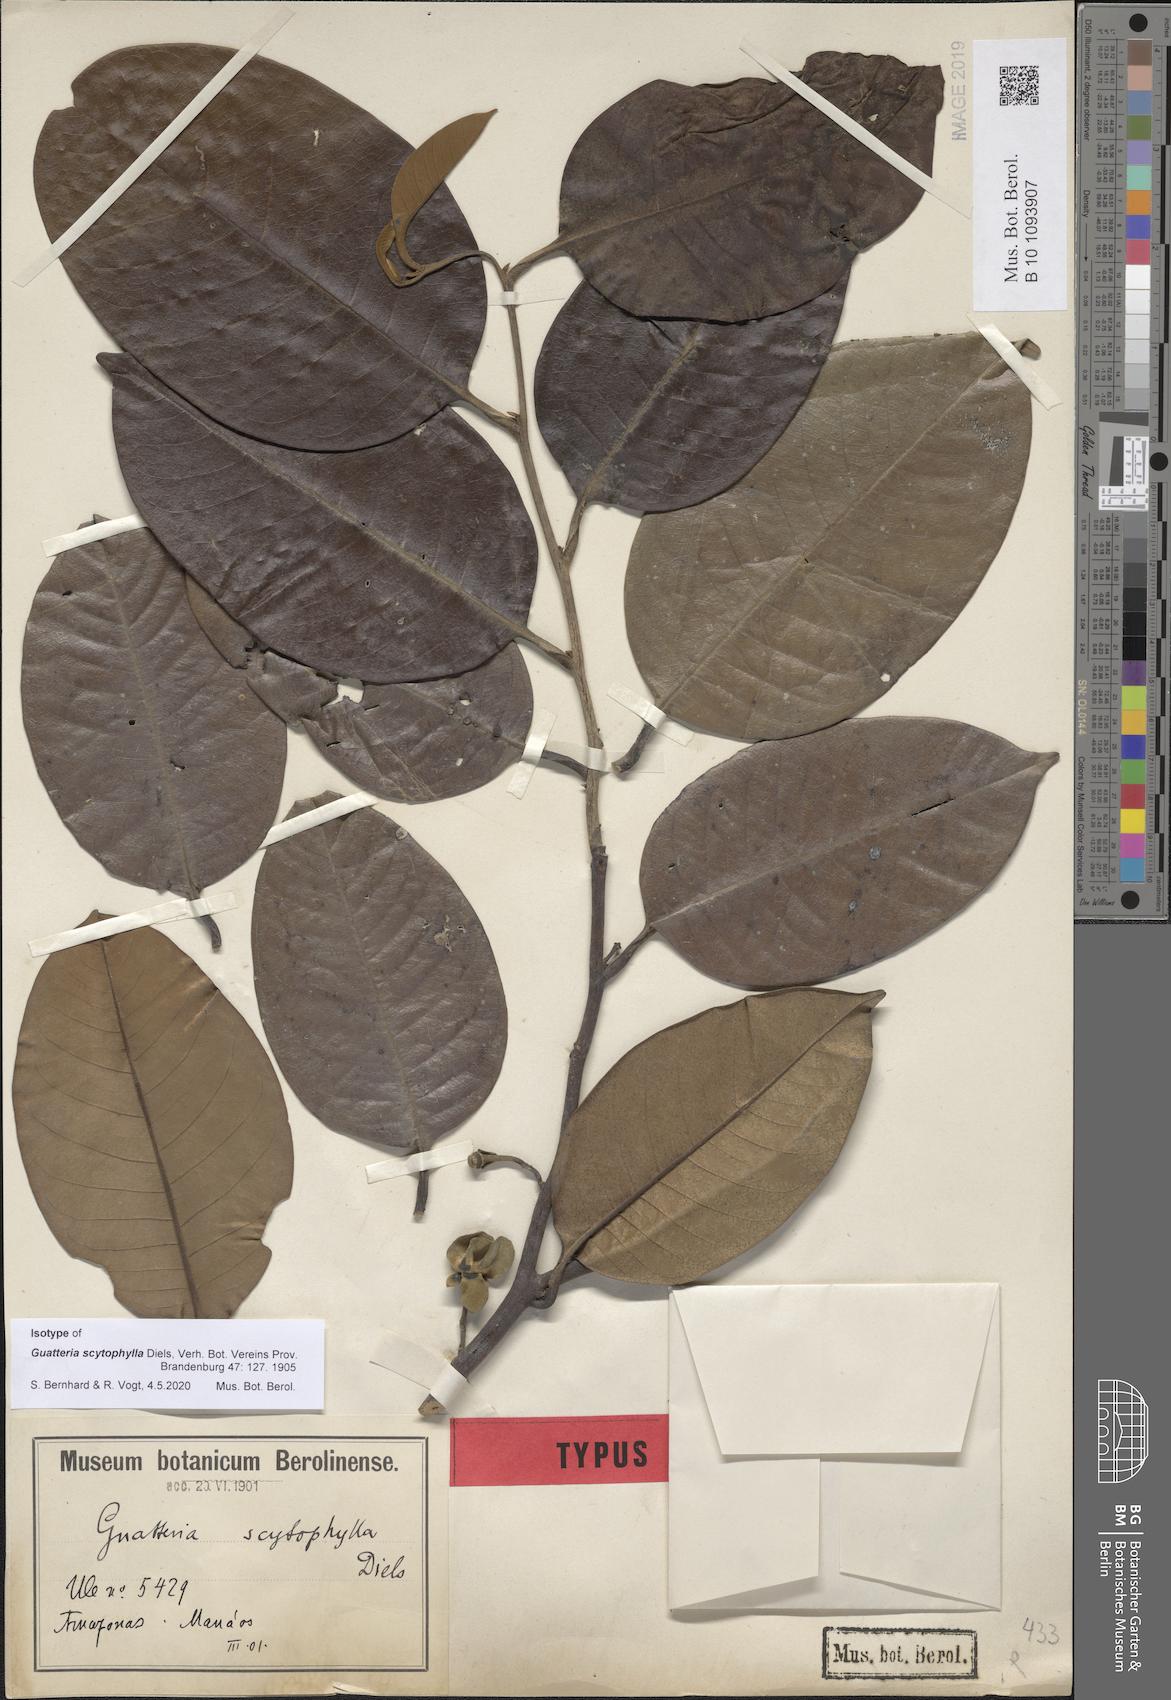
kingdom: Plantae
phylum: Tracheophyta
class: Magnoliopsida
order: Magnoliales
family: Annonaceae
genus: Guatteria
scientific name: Guatteria scytophylla
